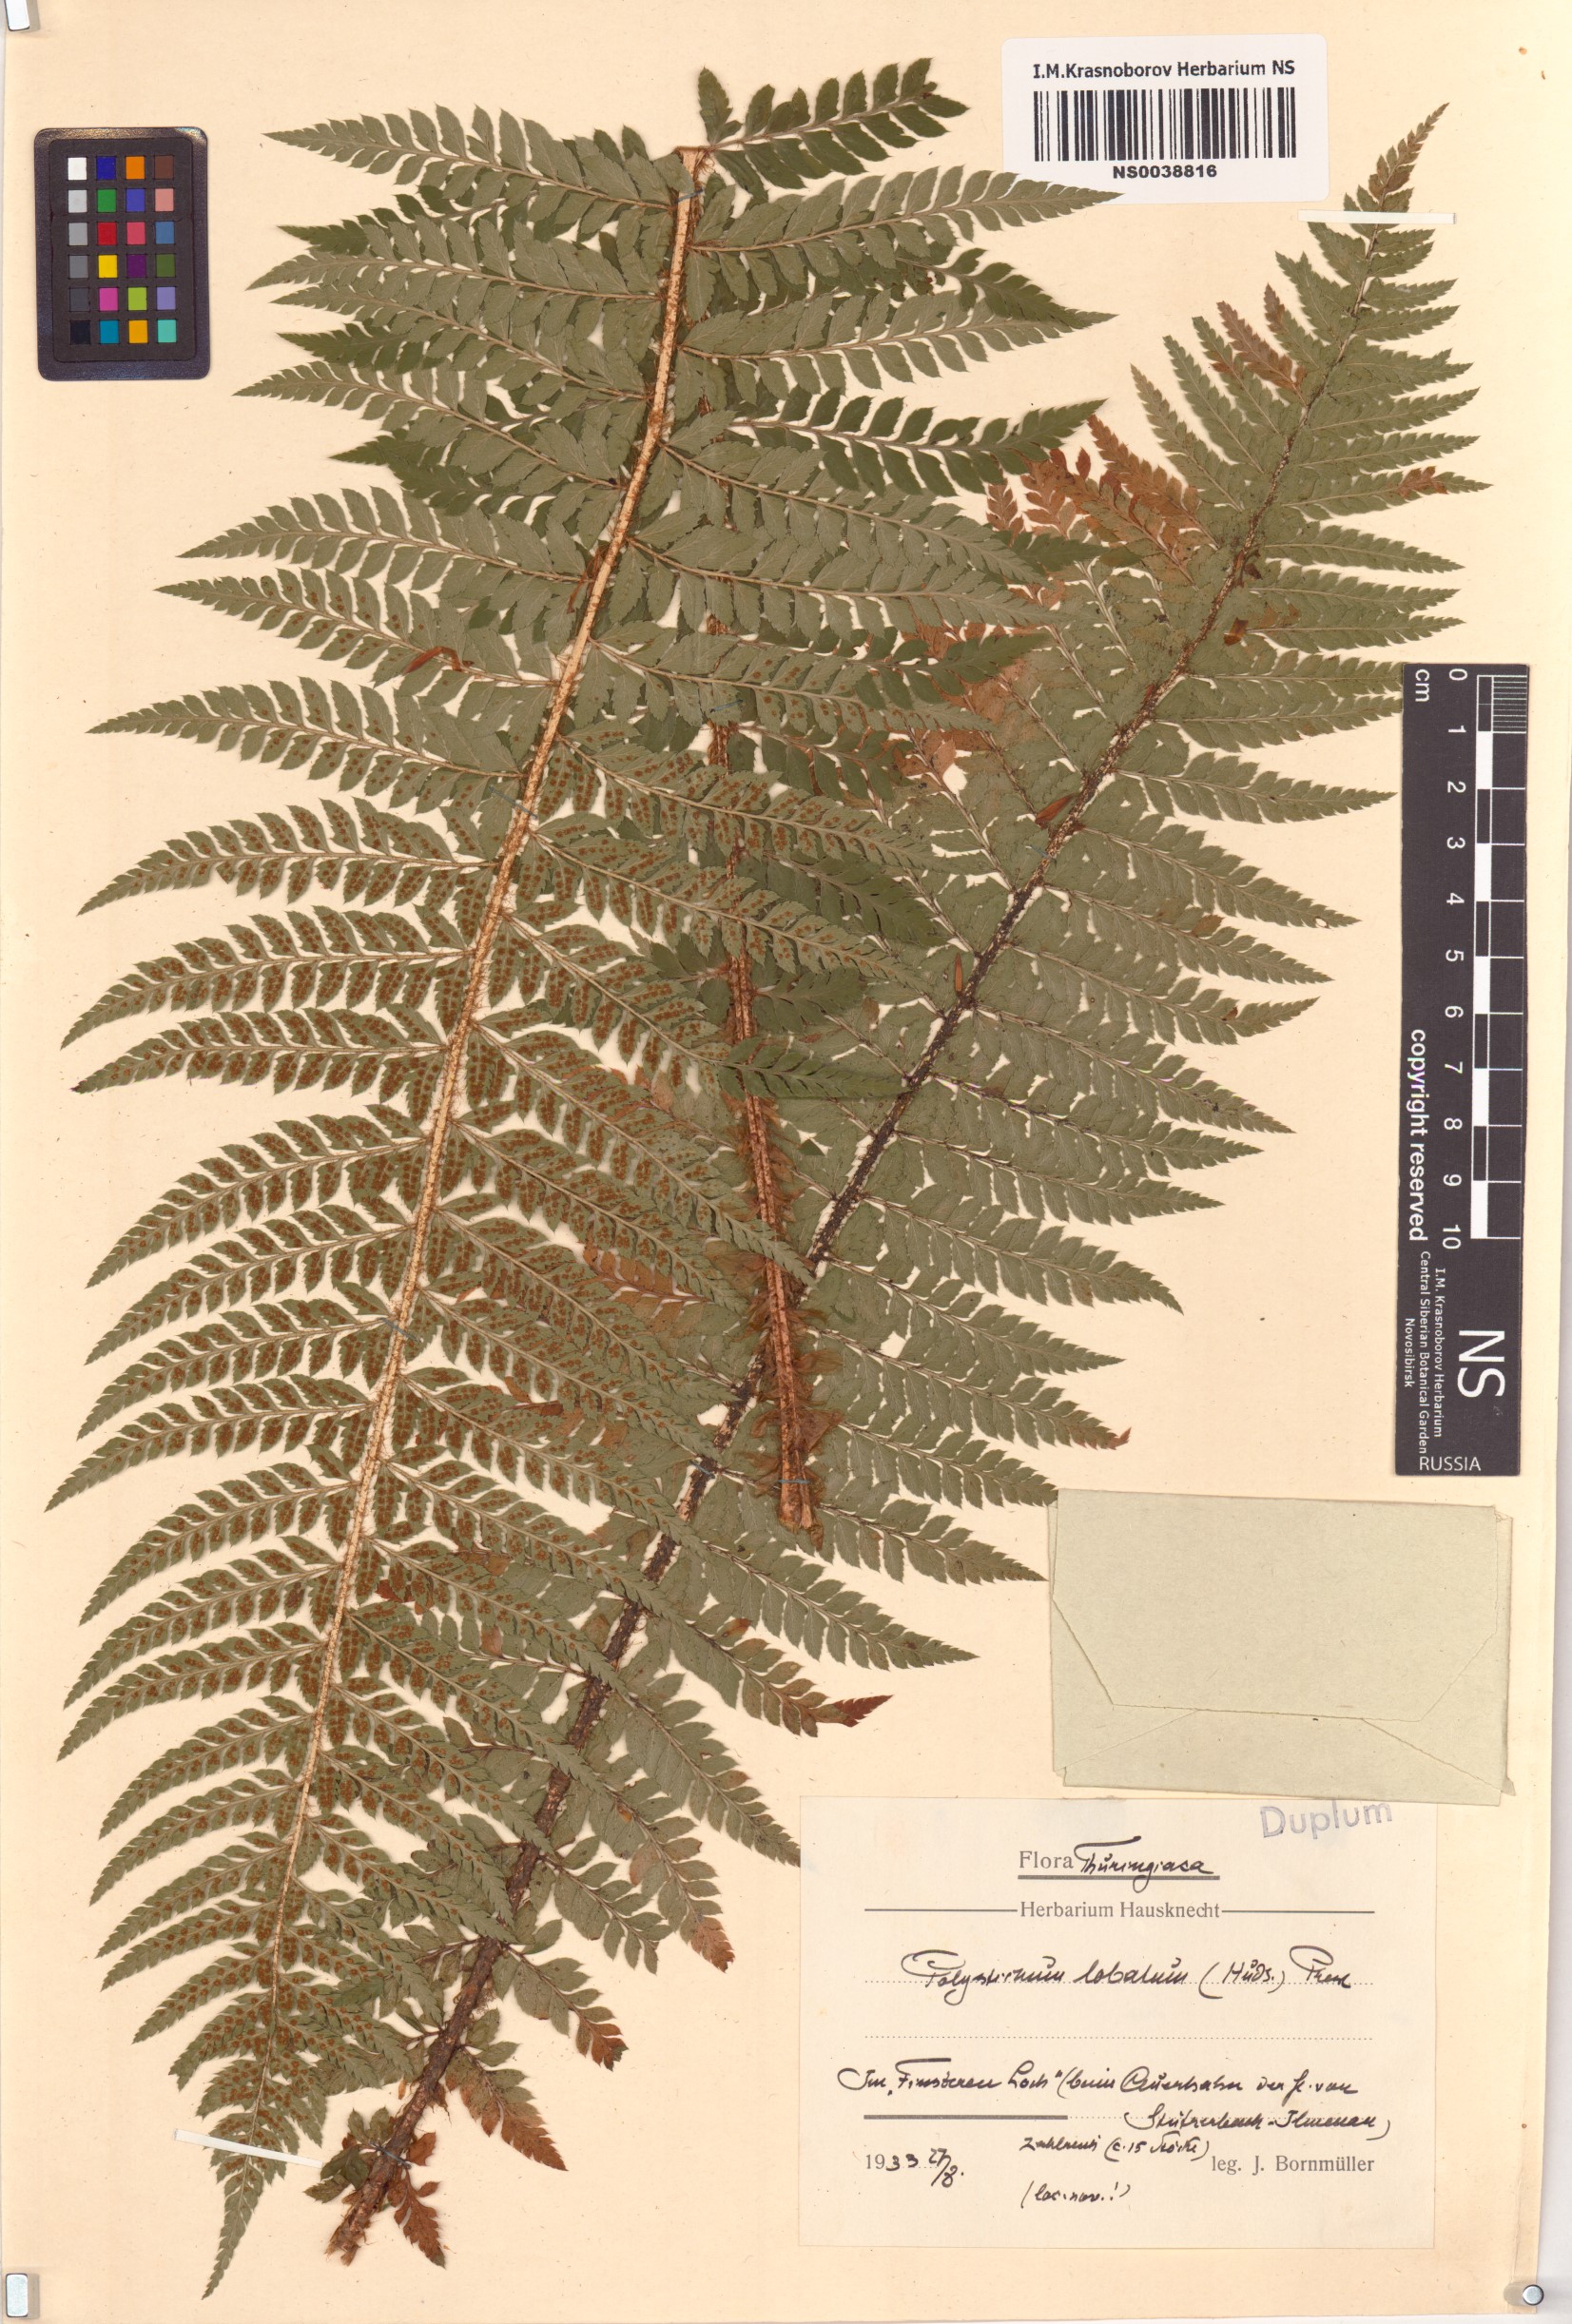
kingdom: Plantae
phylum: Tracheophyta
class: Polypodiopsida
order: Polypodiales
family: Dryopteridaceae
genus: Polystichum
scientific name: Polystichum aculeatum
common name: Hard shield-fern
